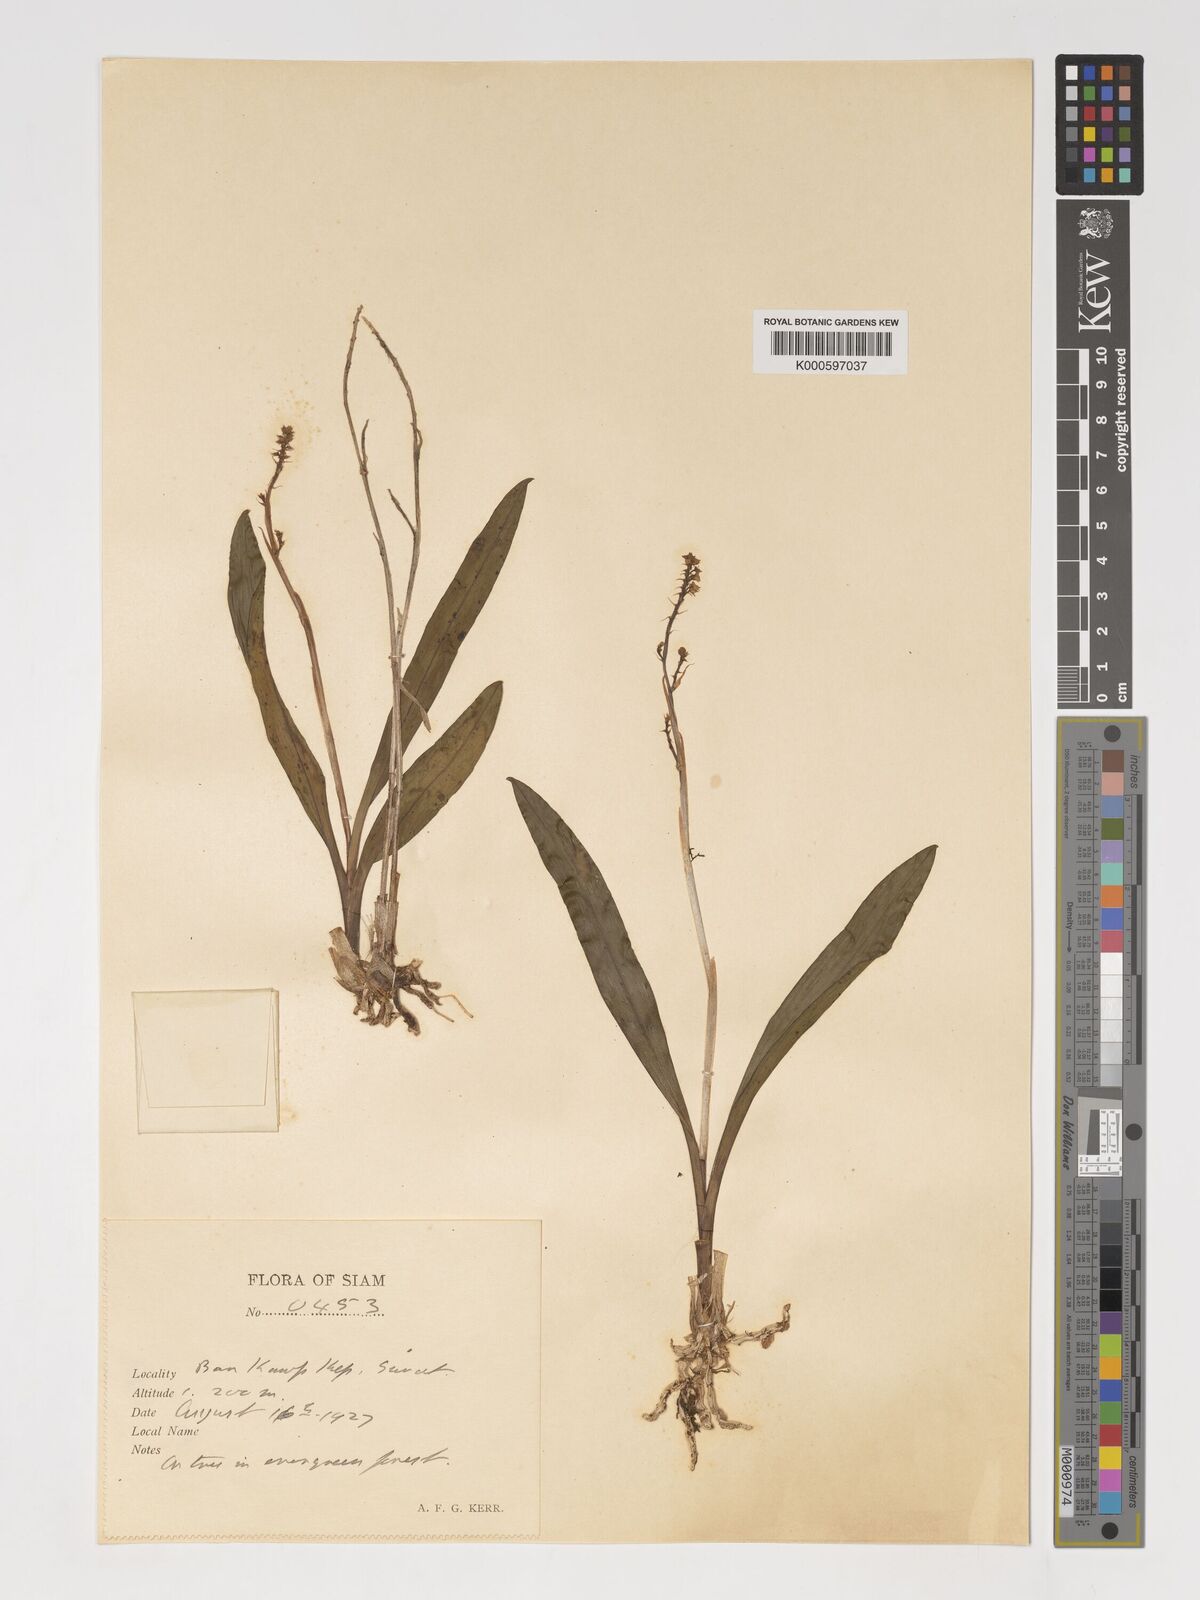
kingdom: Plantae
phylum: Tracheophyta
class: Liliopsida
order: Asparagales
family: Orchidaceae
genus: Polystachya
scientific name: Polystachya concreta
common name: Greater yellowspike orchid
